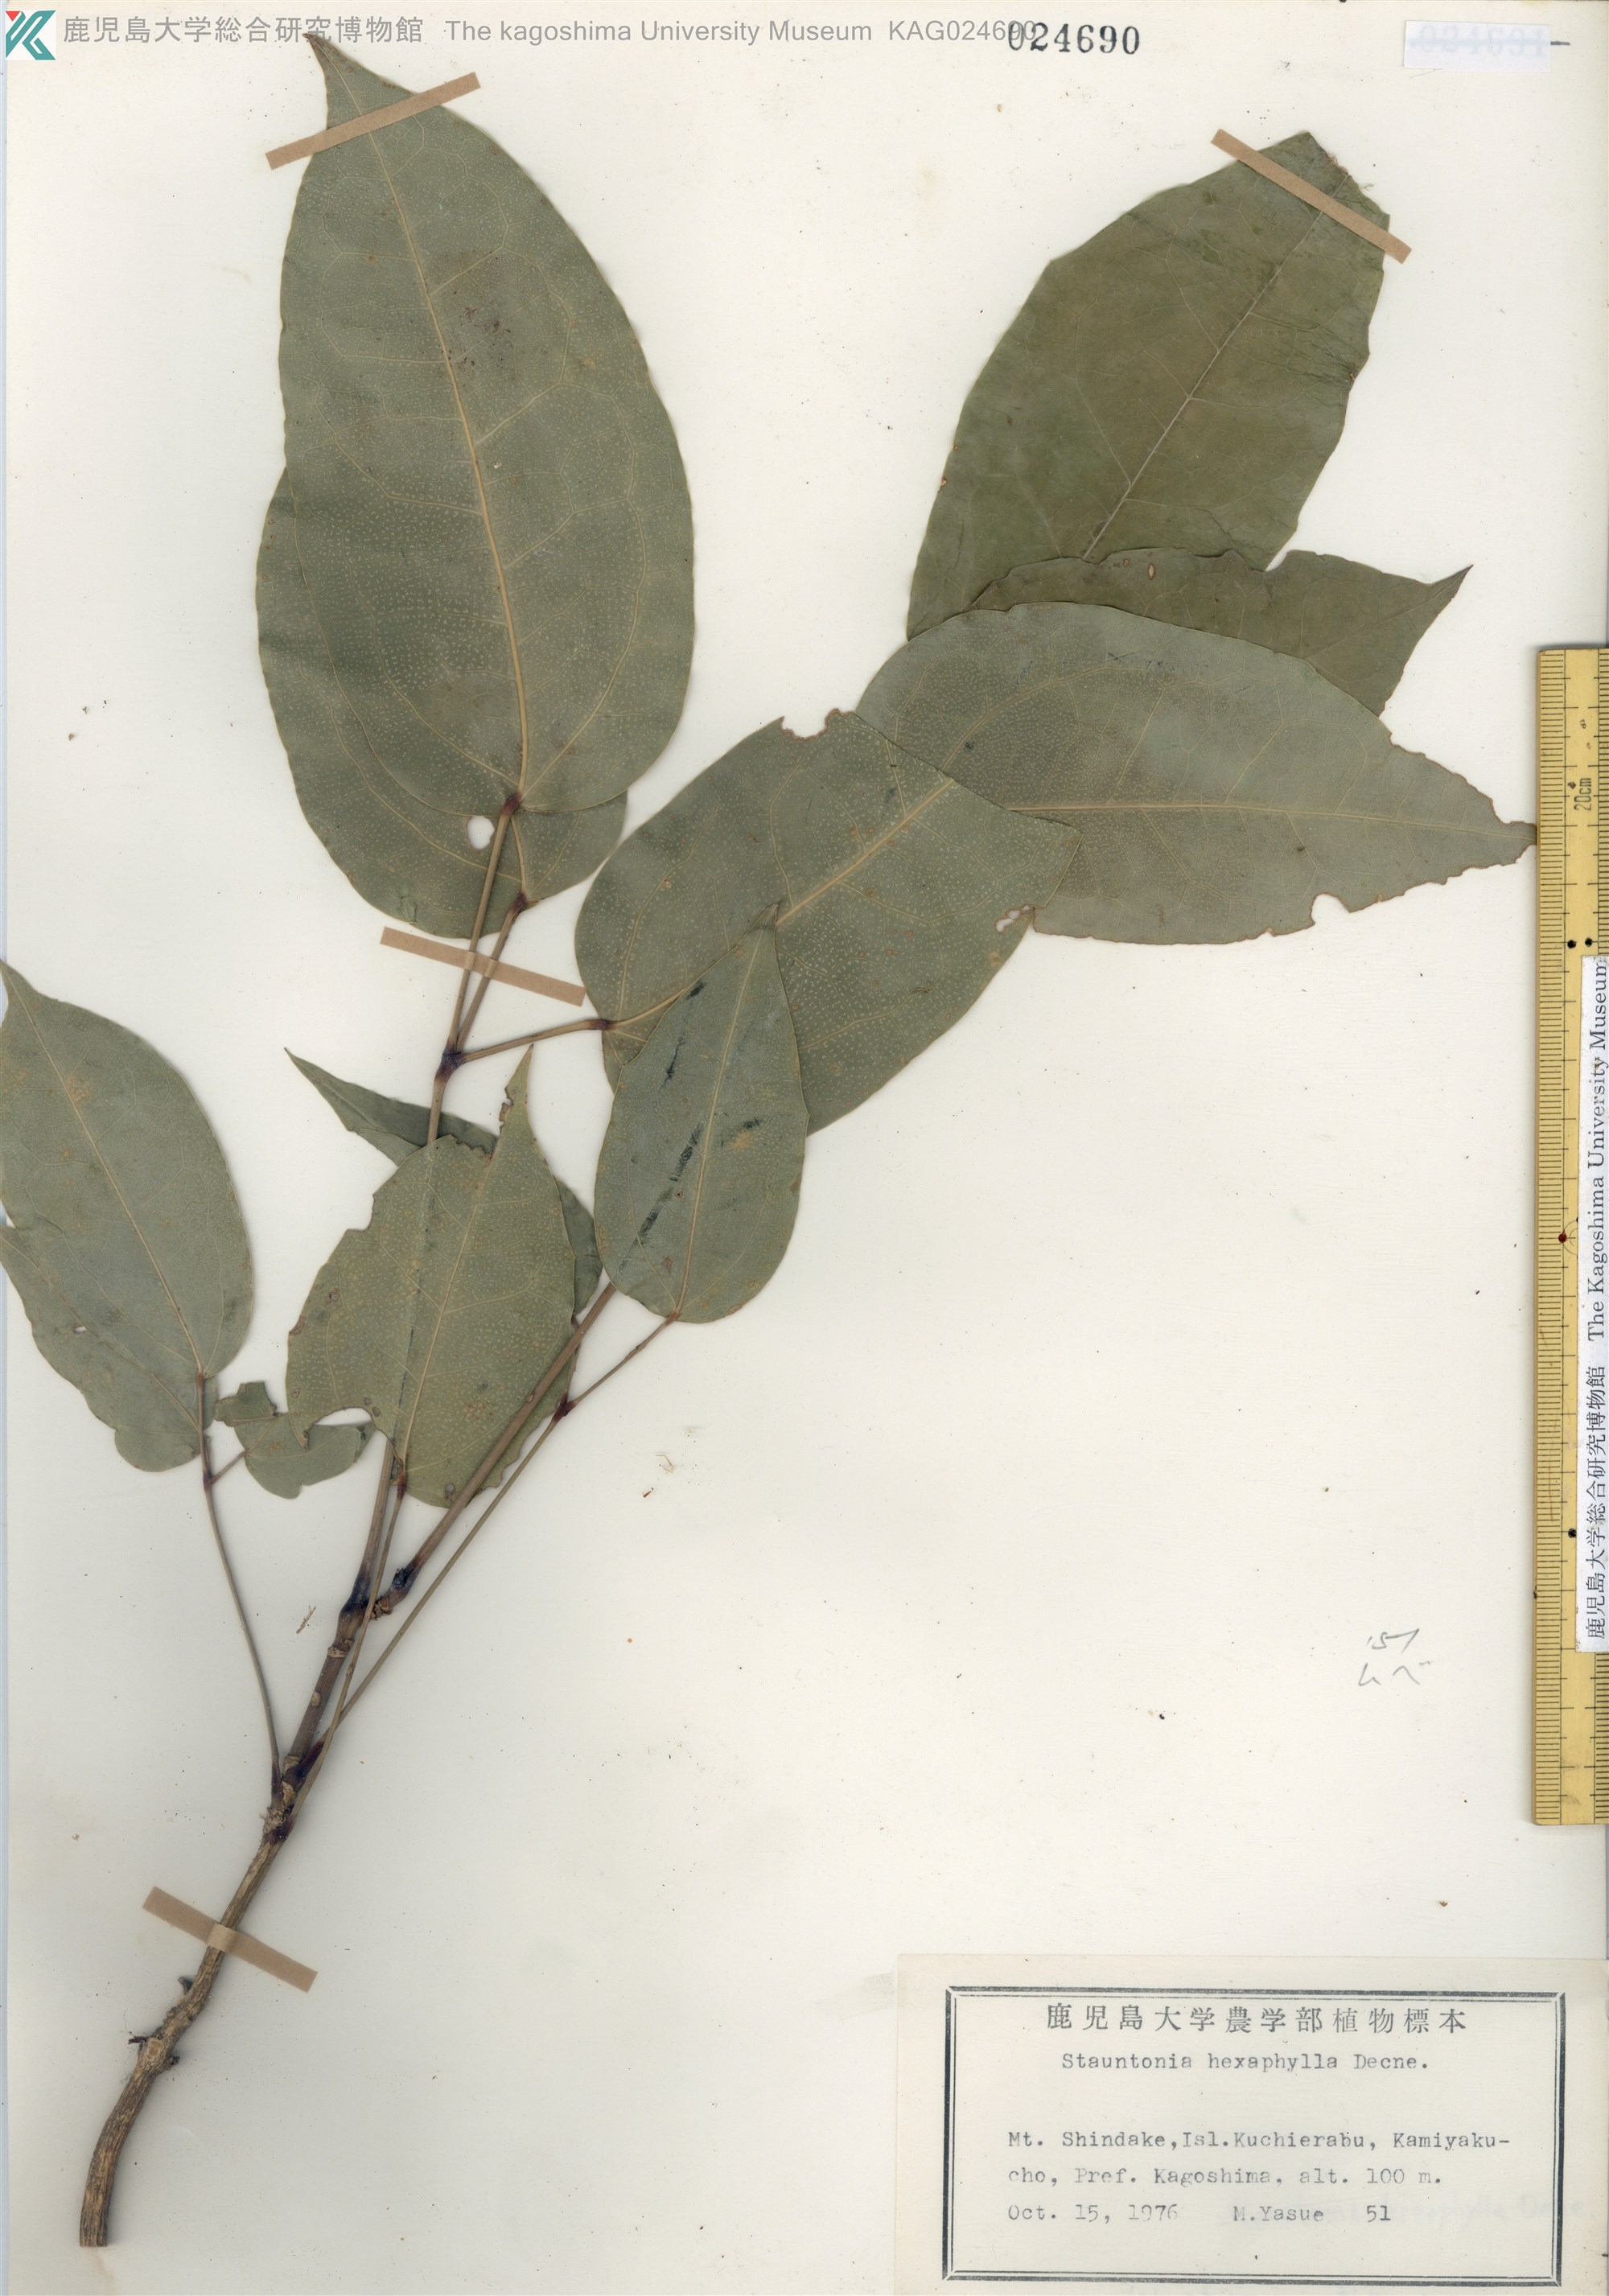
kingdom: Plantae
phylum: Tracheophyta
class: Magnoliopsida
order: Ranunculales
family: Lardizabalaceae
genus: Stauntonia
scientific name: Stauntonia hexaphylla
